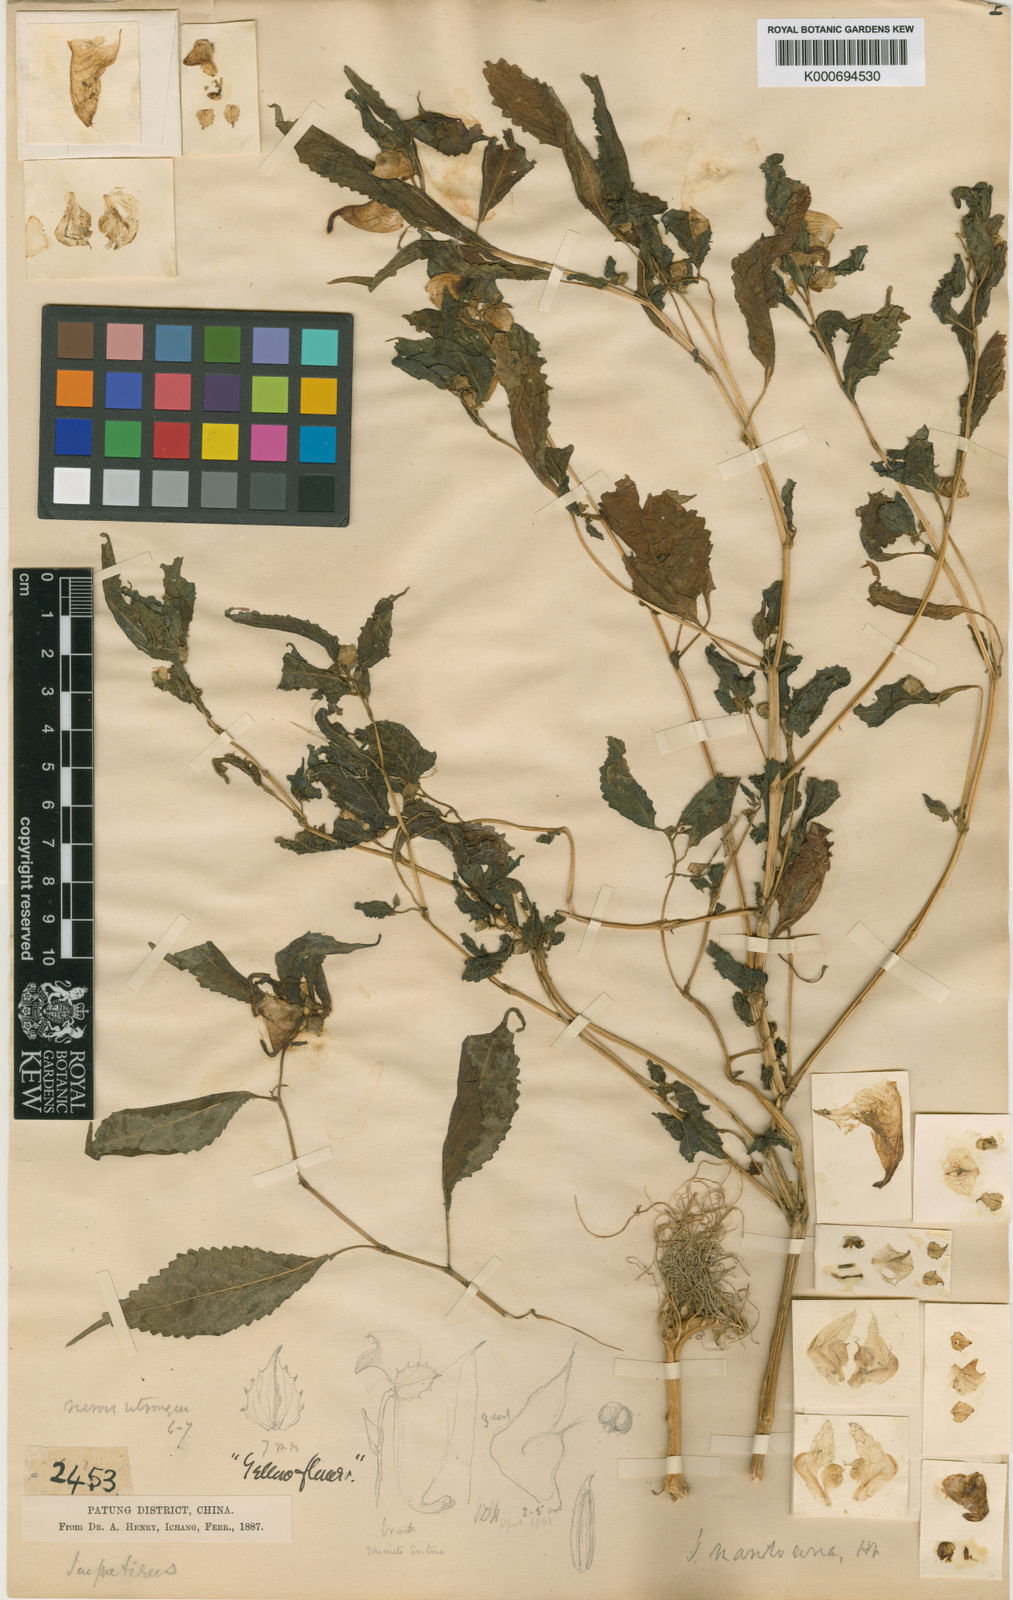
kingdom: Plantae
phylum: Tracheophyta
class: Magnoliopsida
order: Ericales
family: Balsaminaceae
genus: Impatiens
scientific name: Impatiens
